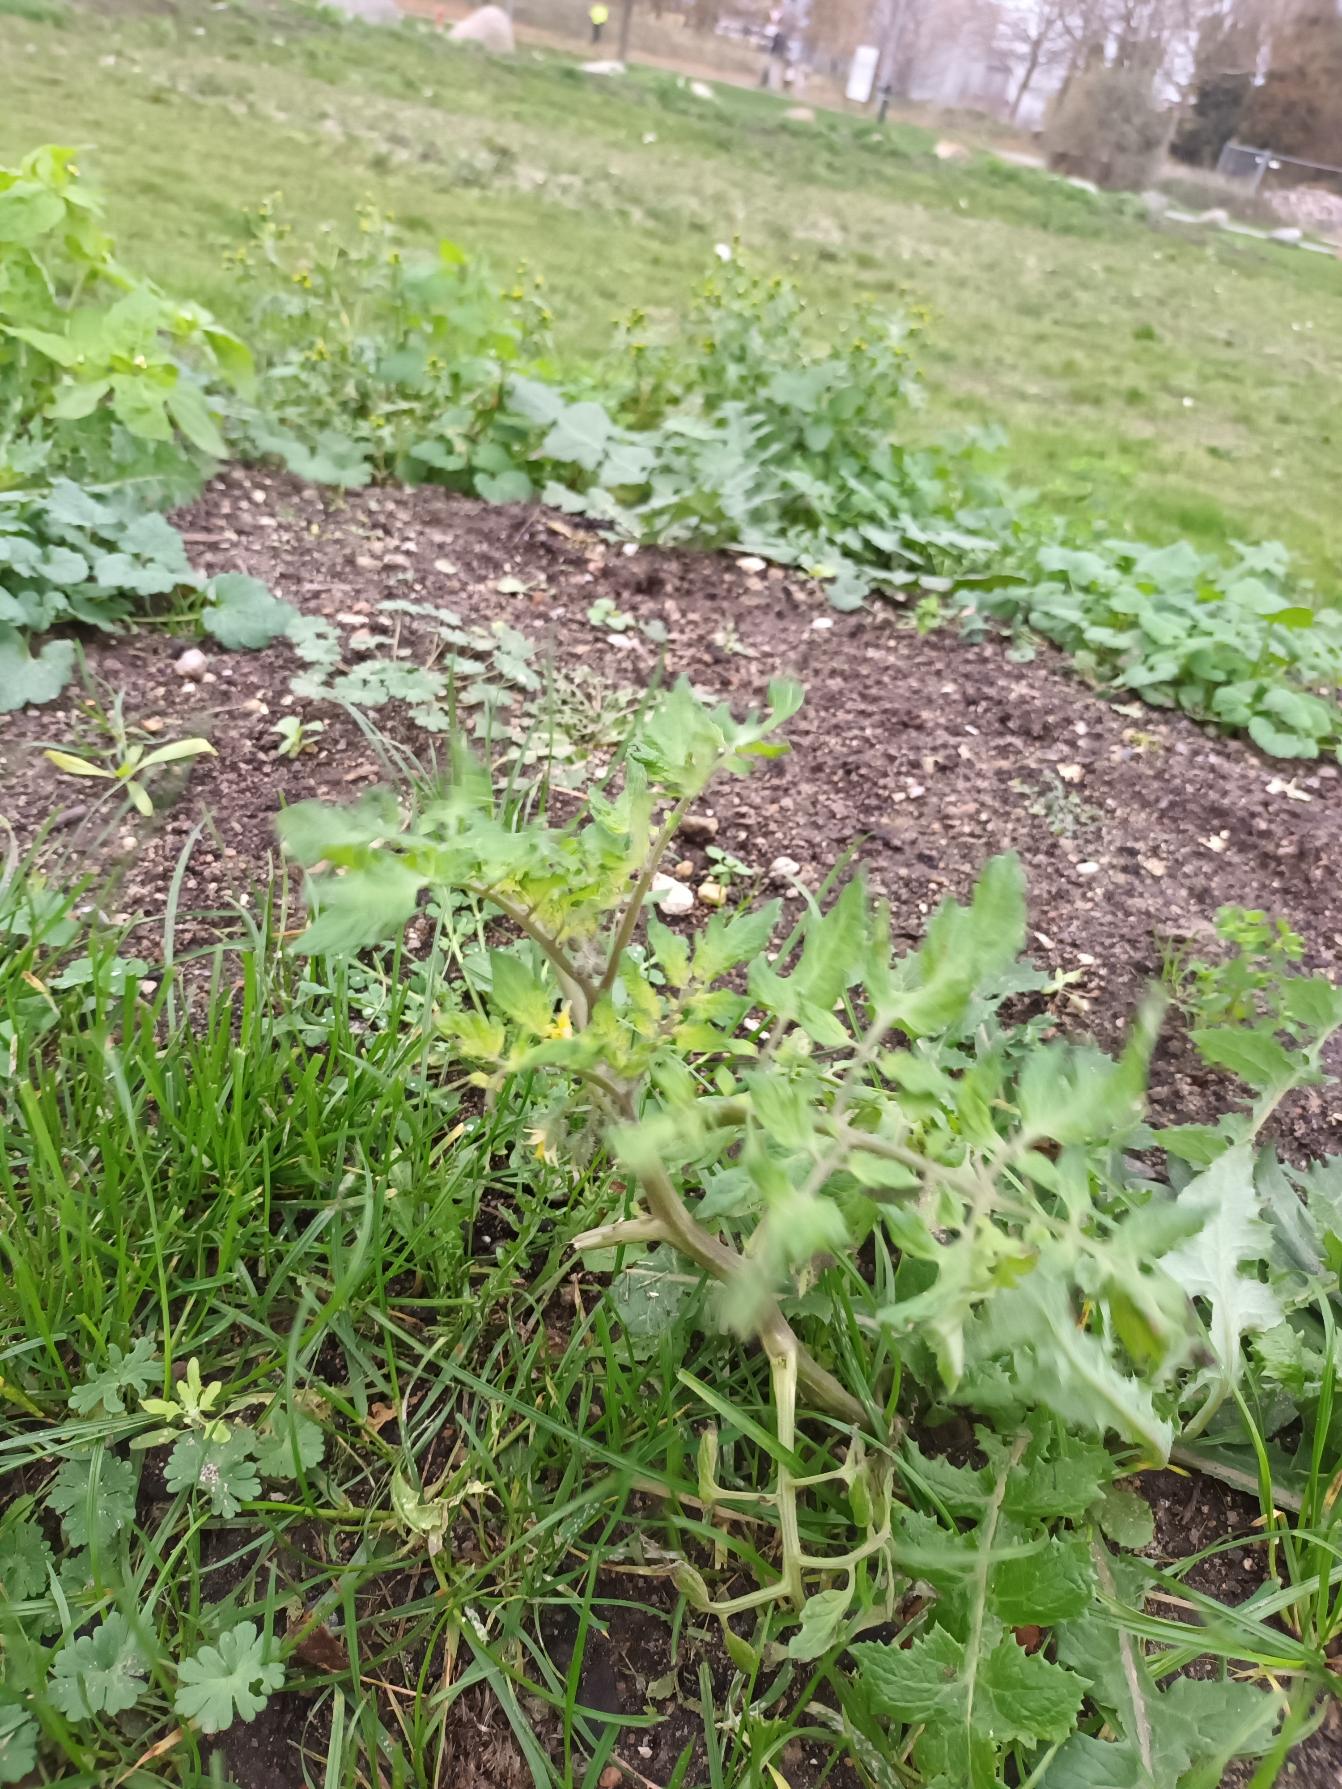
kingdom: Plantae
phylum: Tracheophyta
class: Magnoliopsida
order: Solanales
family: Solanaceae
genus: Solanum
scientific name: Solanum lycopersicum
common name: Tomat
